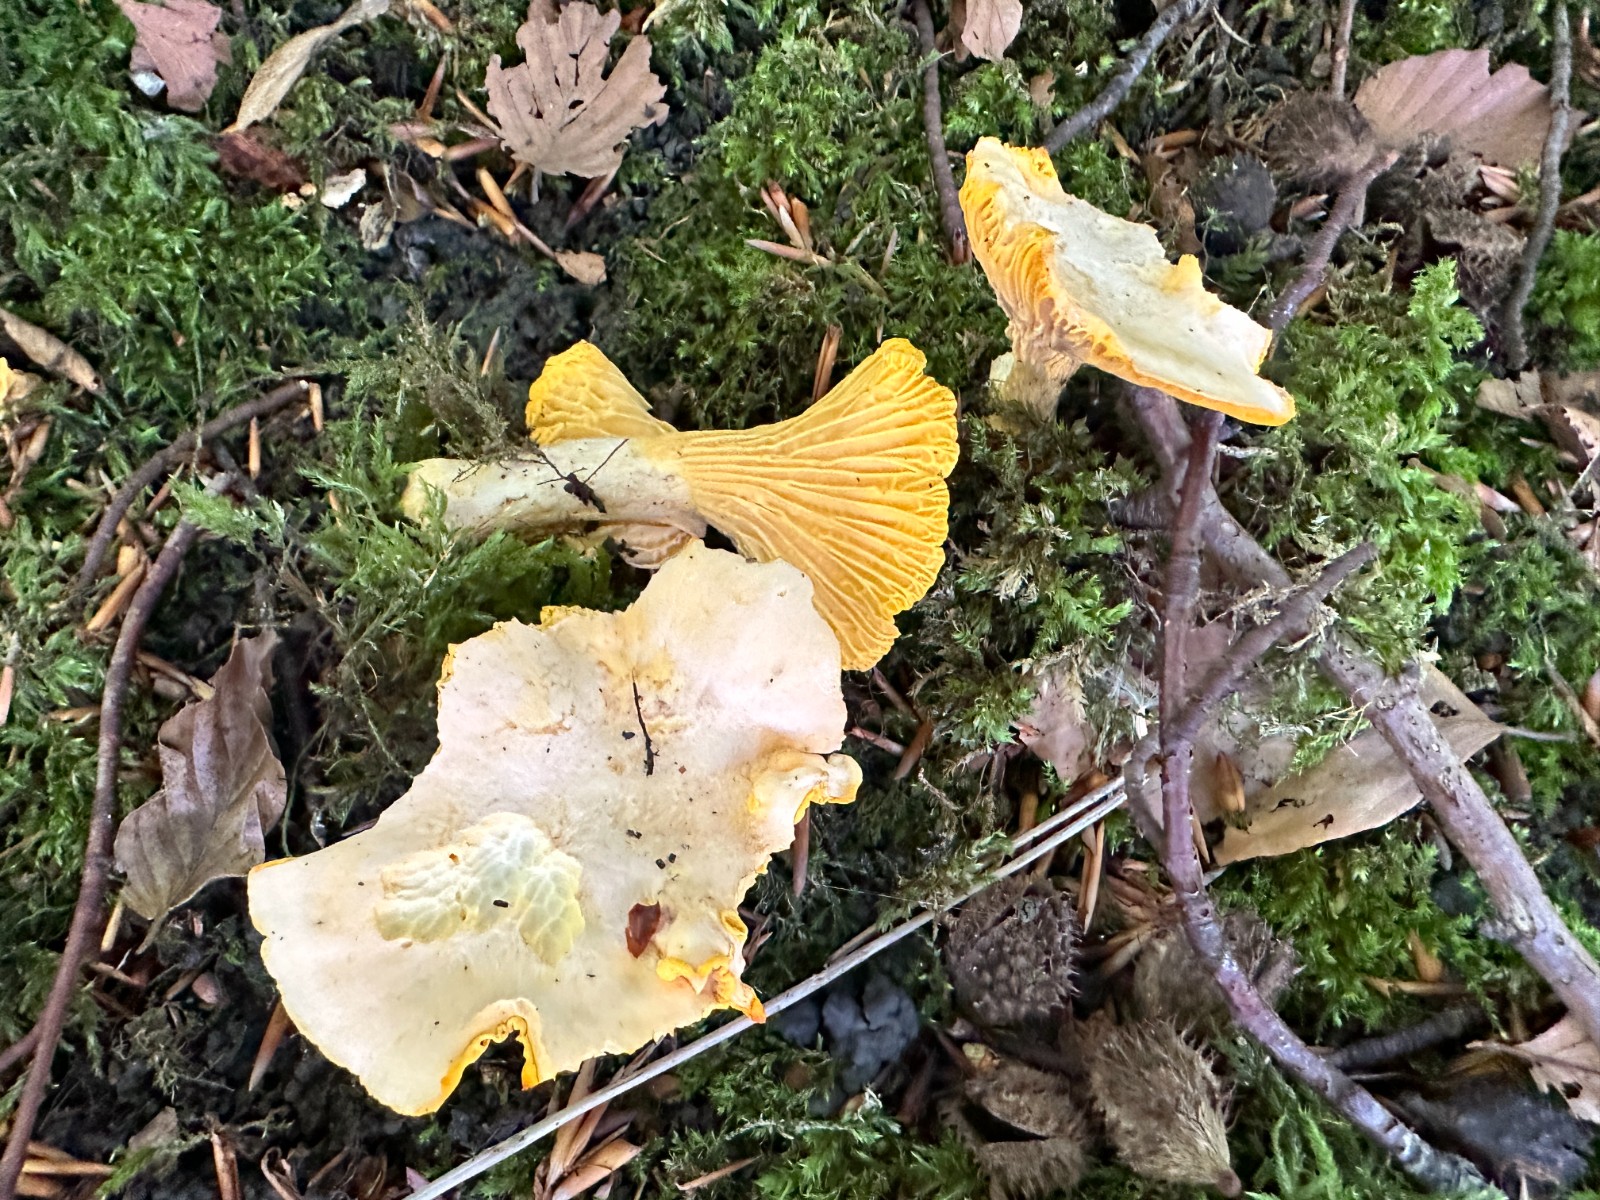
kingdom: Fungi
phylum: Basidiomycota
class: Agaricomycetes
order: Cantharellales
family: Hydnaceae
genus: Cantharellus
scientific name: Cantharellus pallens
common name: bleg kantarel
